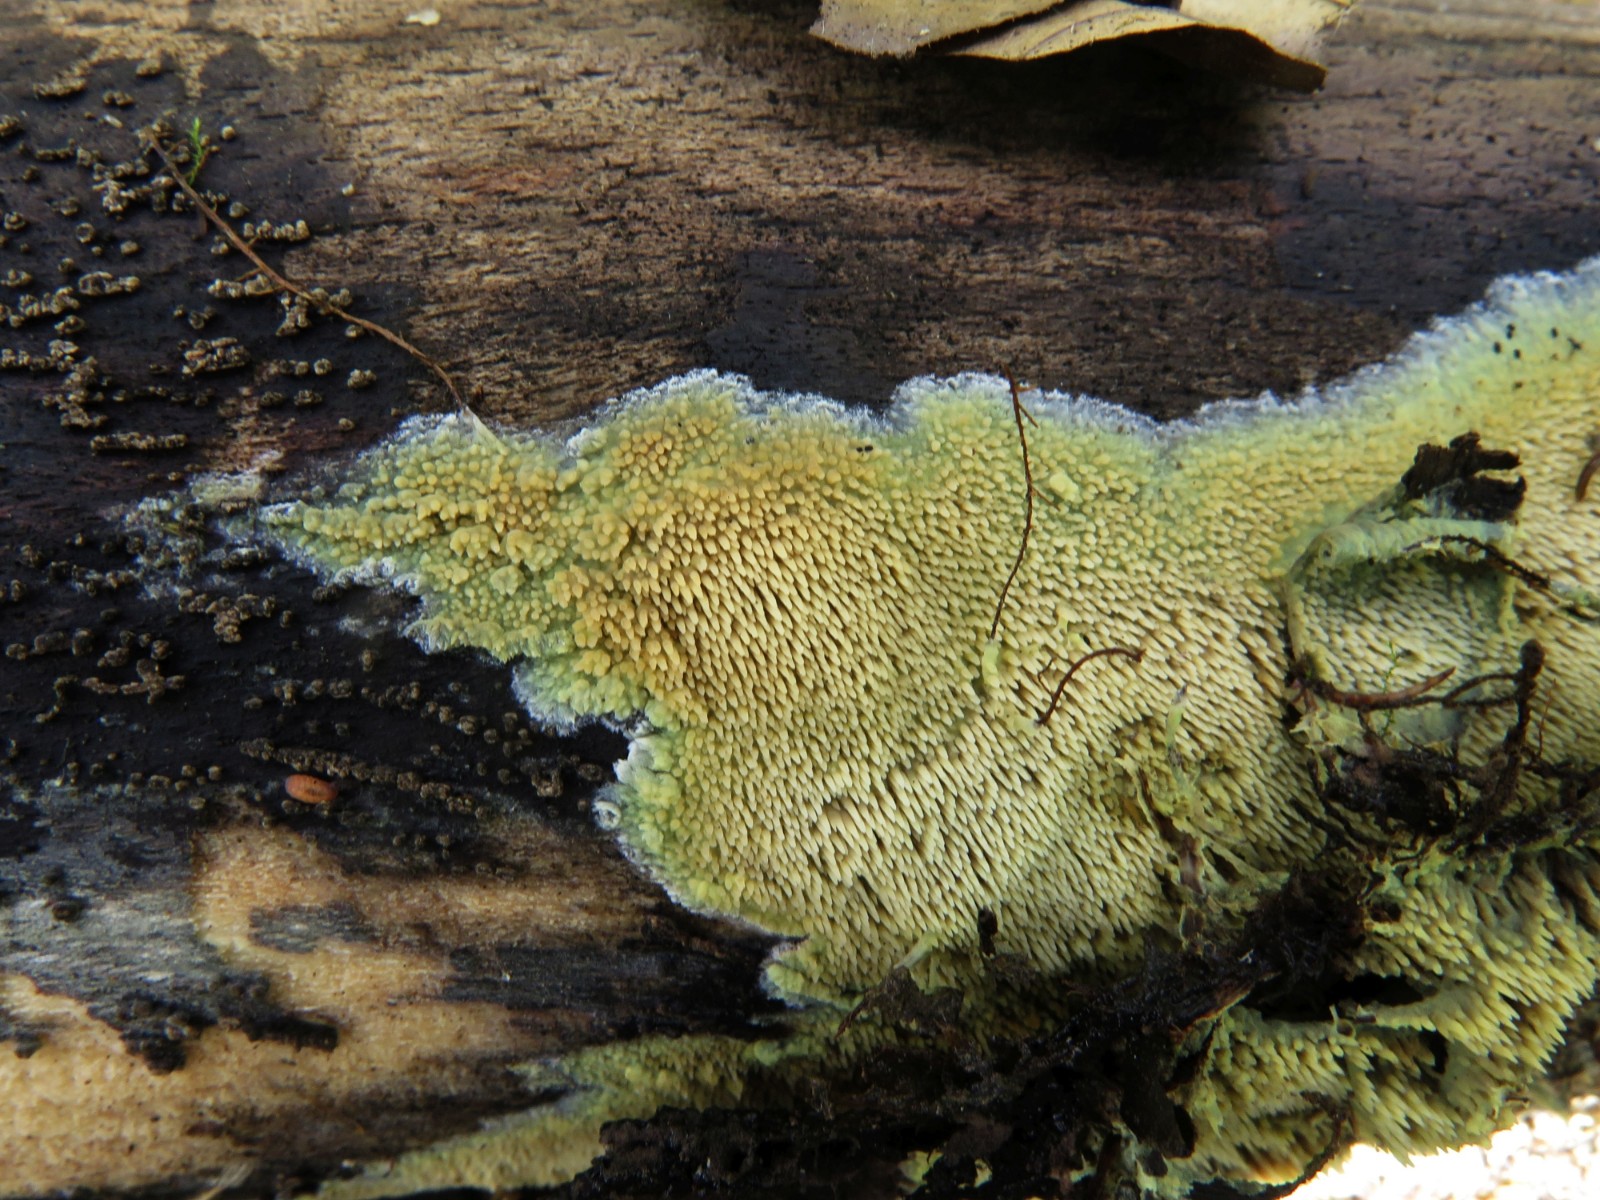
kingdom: Fungi
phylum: Basidiomycota
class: Agaricomycetes
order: Polyporales
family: Meruliaceae
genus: Mycoacia
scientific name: Mycoacia uda
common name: citrongul vokspig
